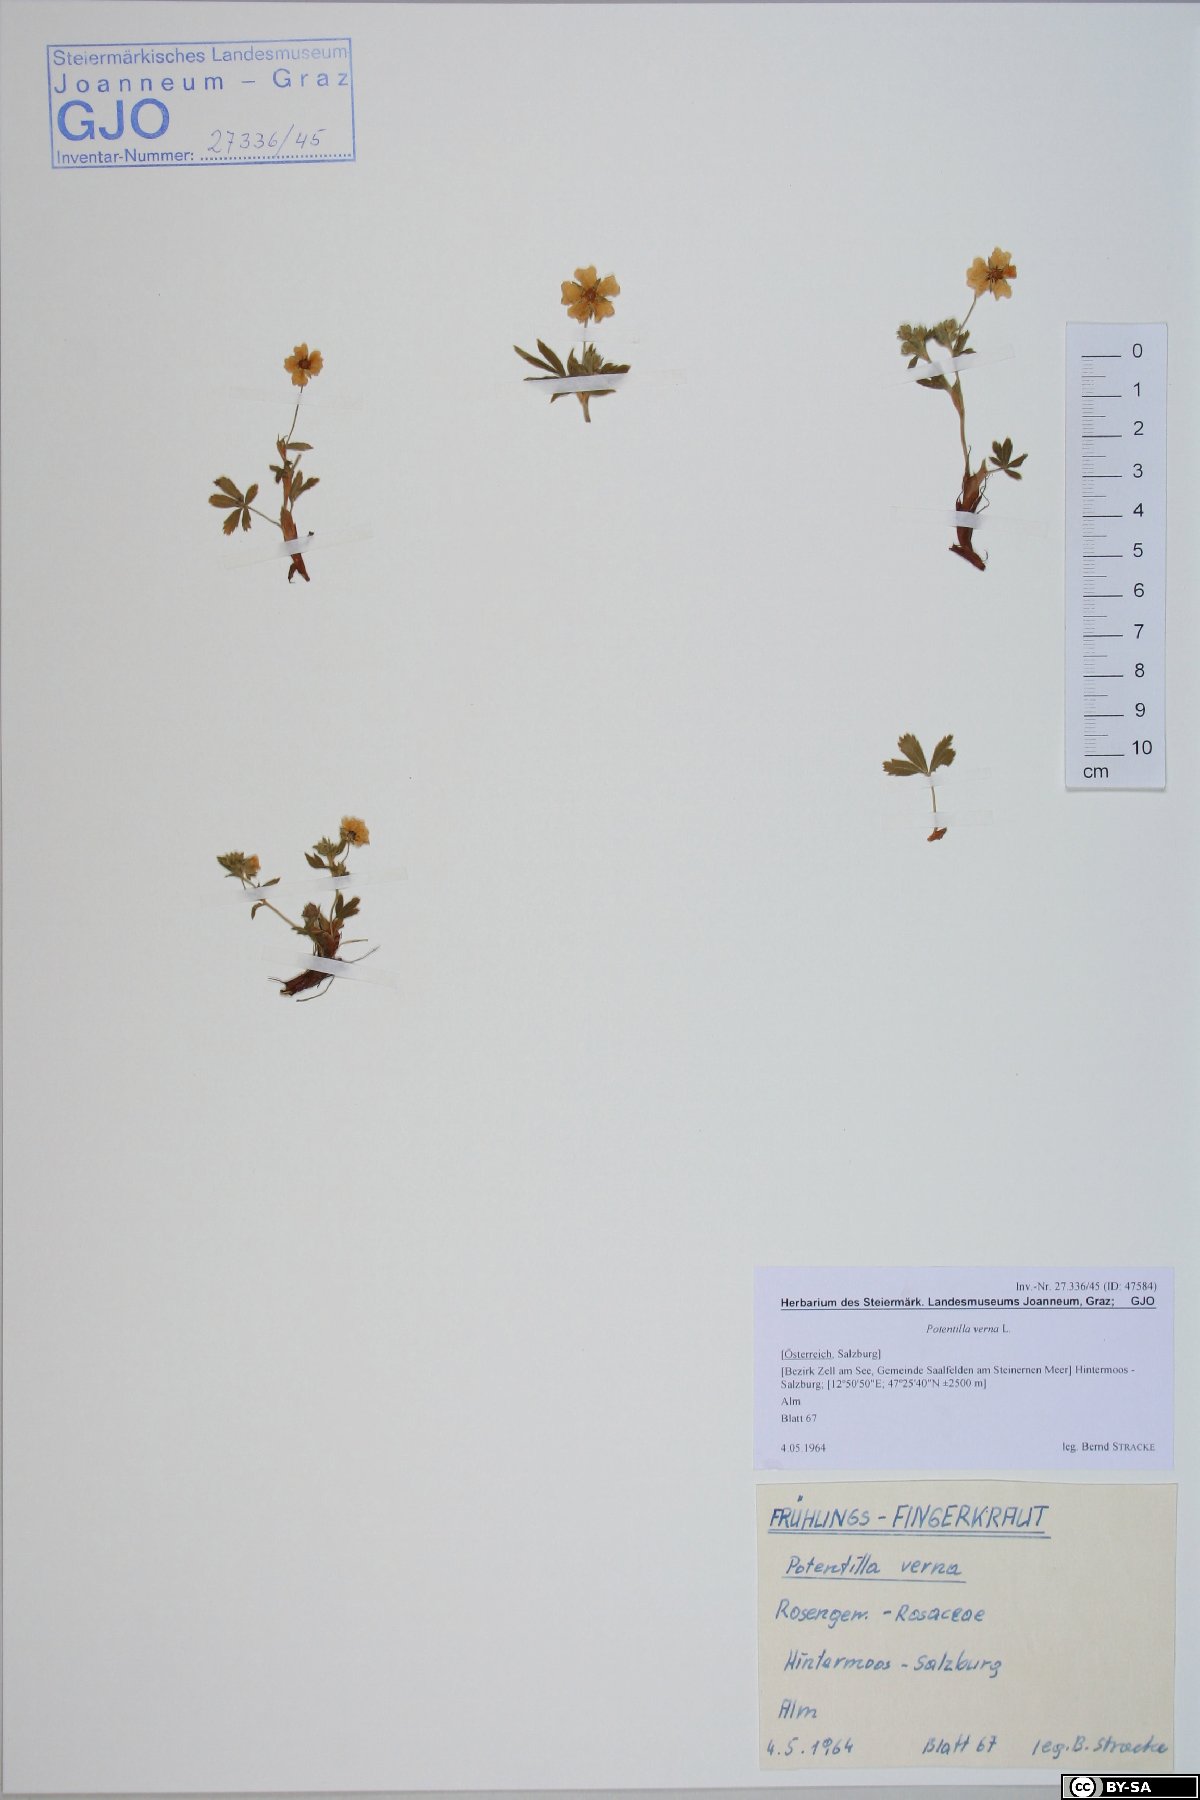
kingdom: Plantae
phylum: Tracheophyta
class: Magnoliopsida
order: Rosales
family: Rosaceae
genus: Potentilla
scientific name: Potentilla verna
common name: Spring cinquefoil
